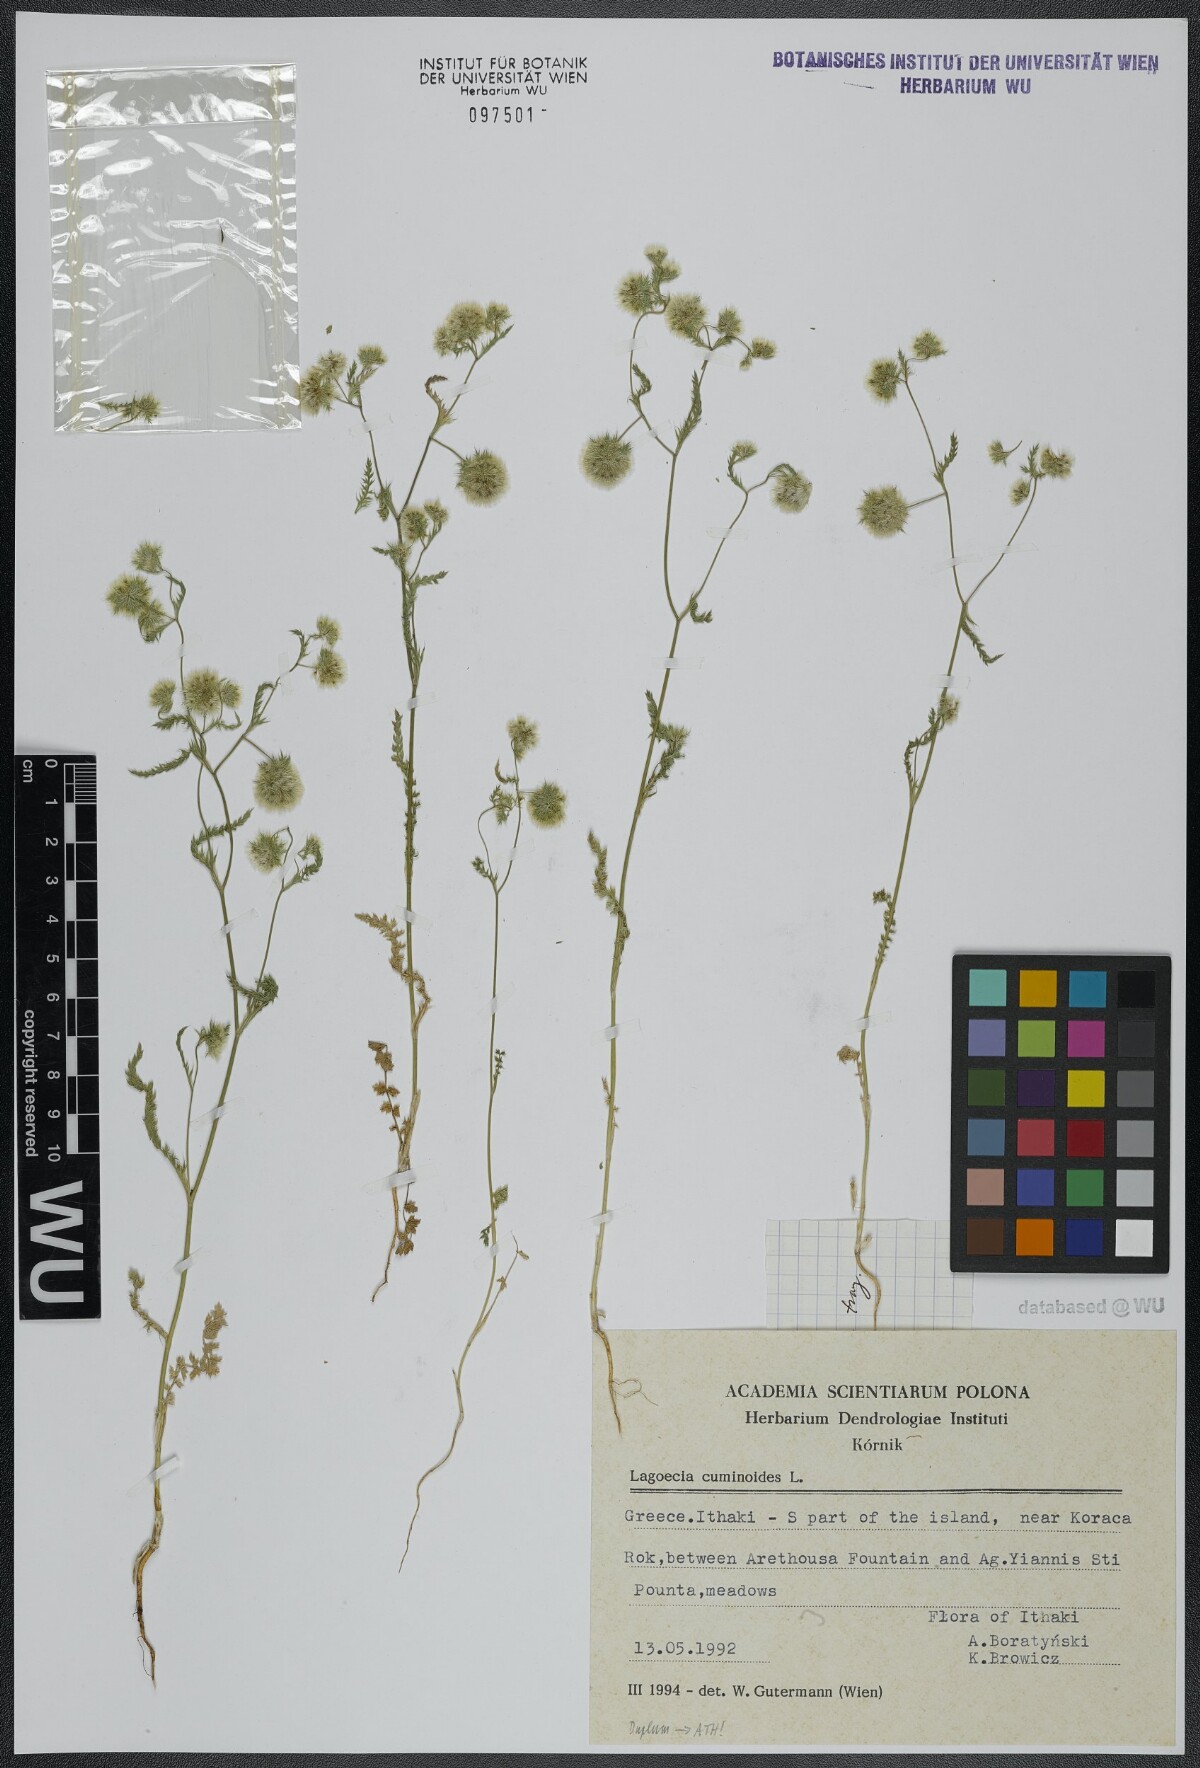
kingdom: Plantae
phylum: Tracheophyta
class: Magnoliopsida
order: Apiales
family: Apiaceae
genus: Lagoecia
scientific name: Lagoecia cuminoides
